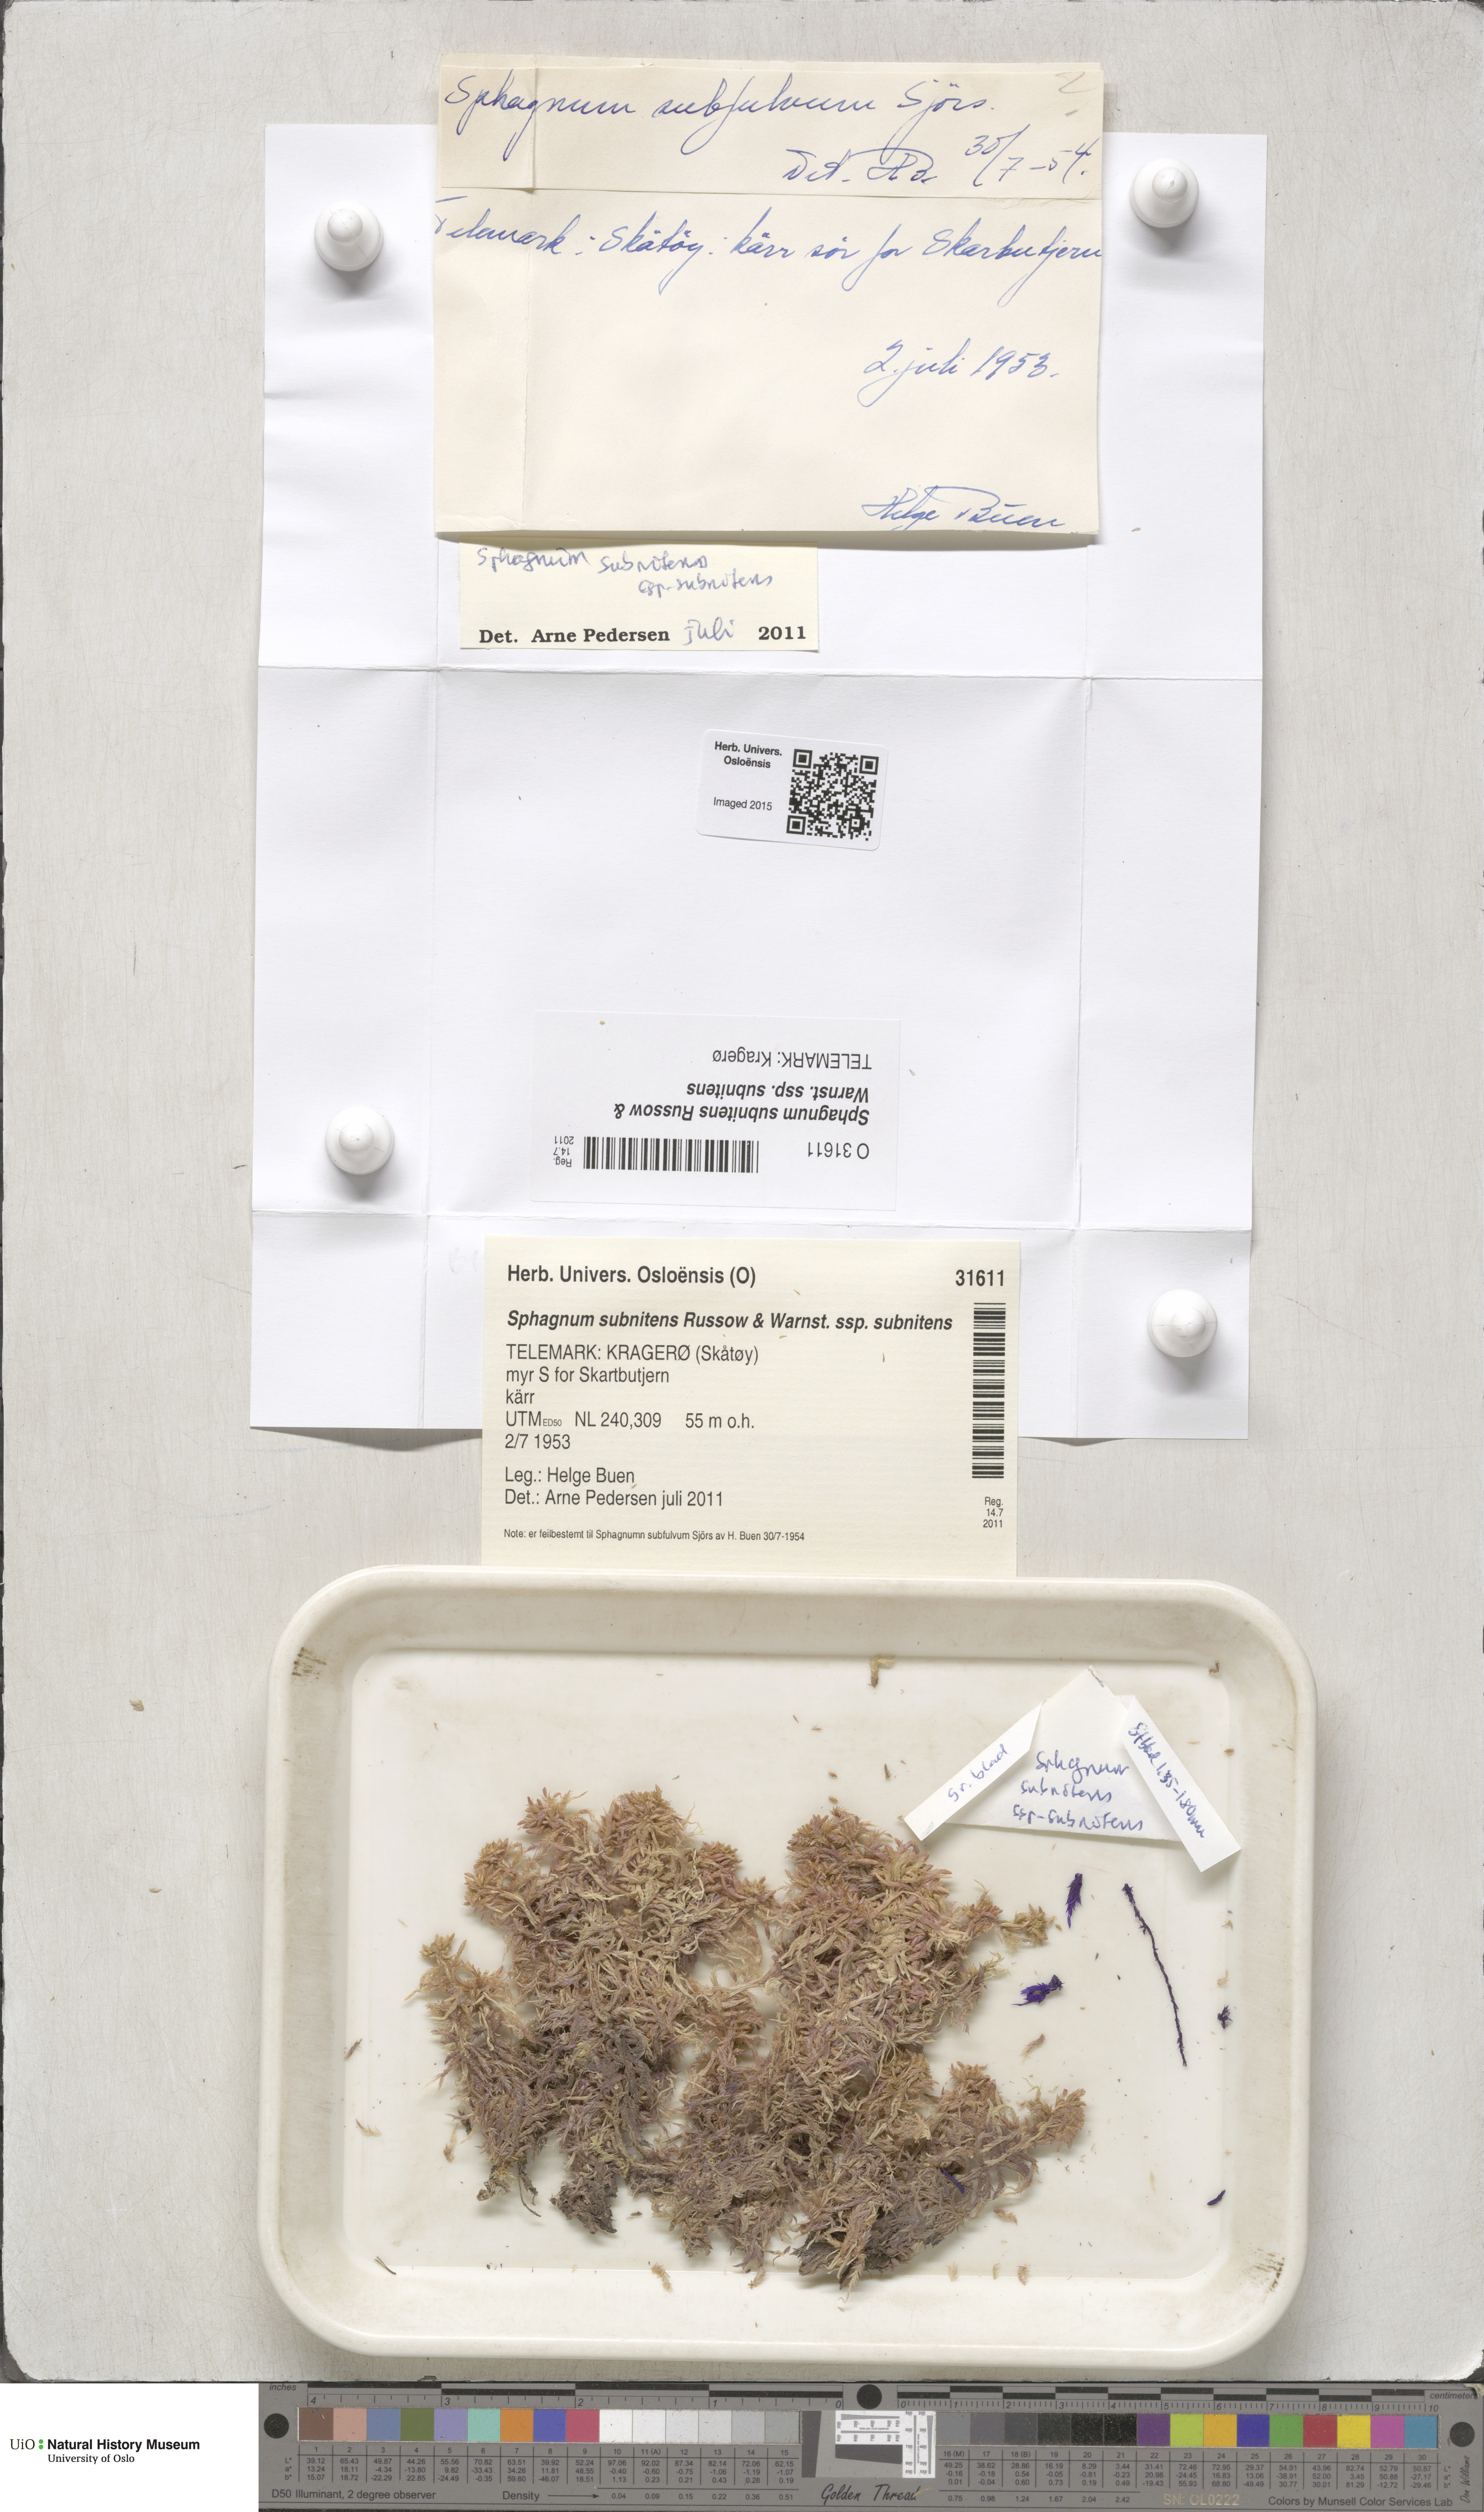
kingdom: Plantae
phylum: Bryophyta
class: Sphagnopsida
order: Sphagnales
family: Sphagnaceae
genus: Sphagnum
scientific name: Sphagnum subnitens
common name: Lustrous bog-moss
